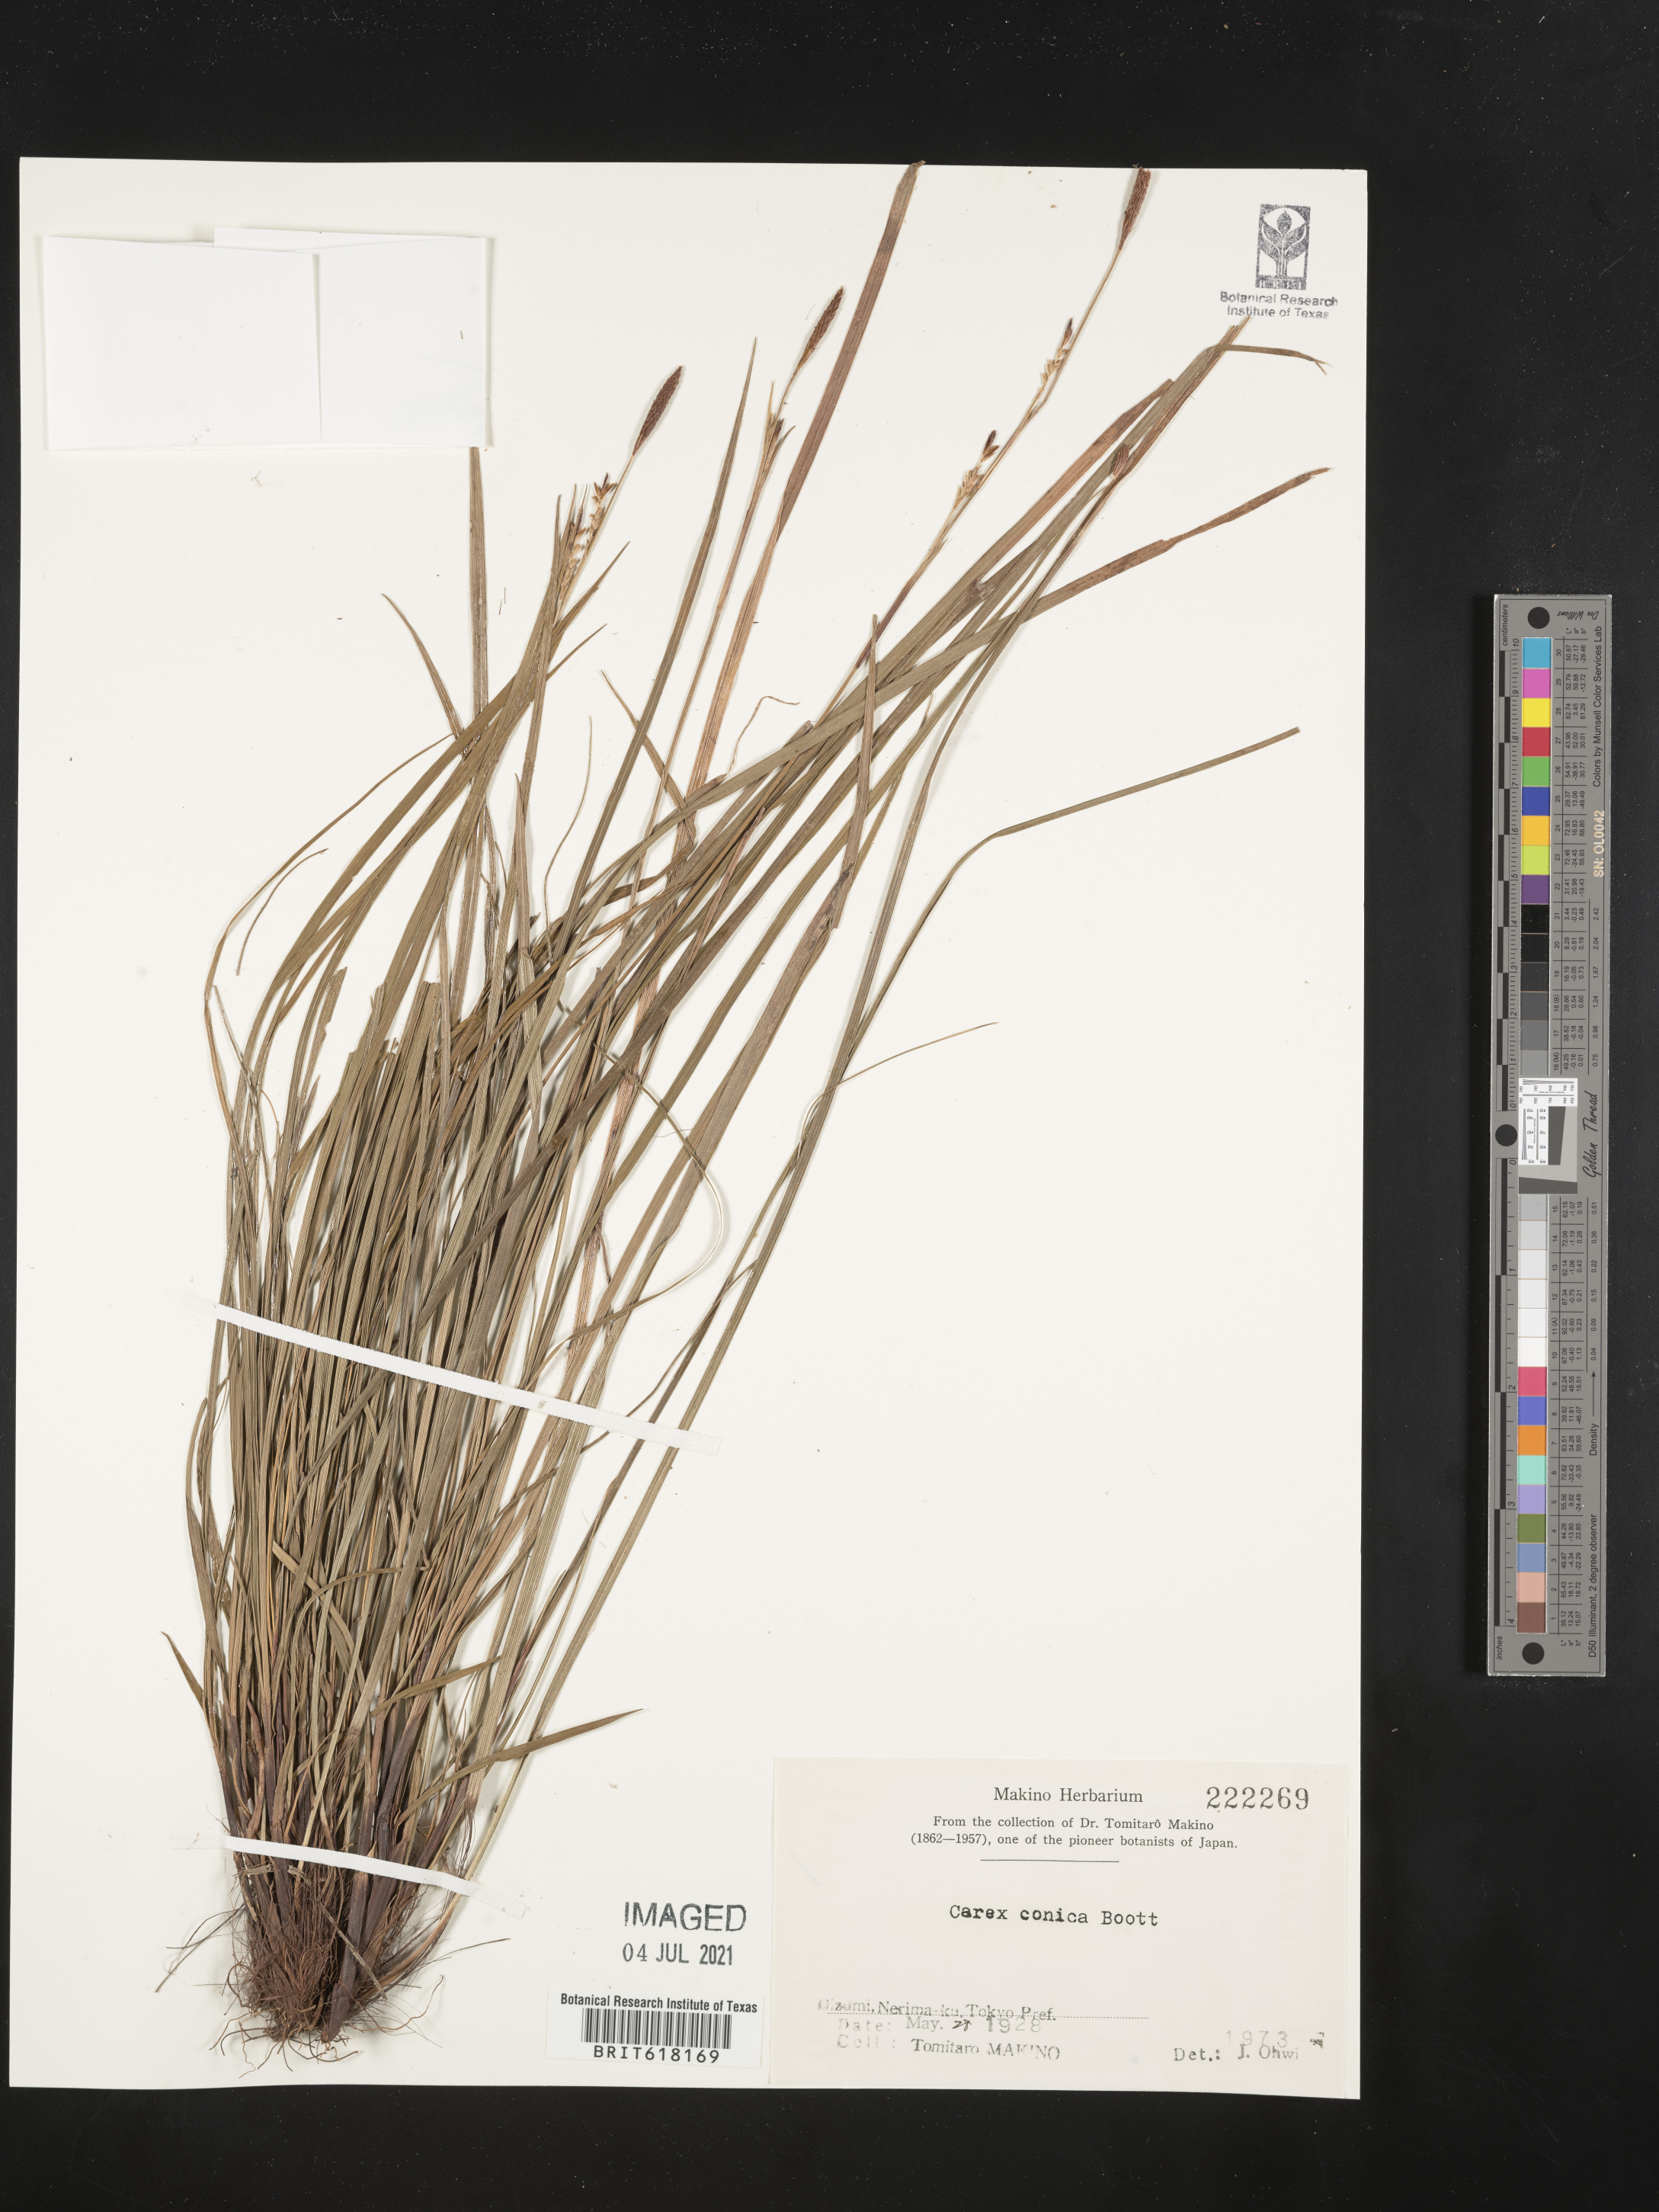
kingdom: Plantae
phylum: Tracheophyta
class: Liliopsida
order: Poales
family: Cyperaceae
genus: Carex
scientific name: Carex conica
